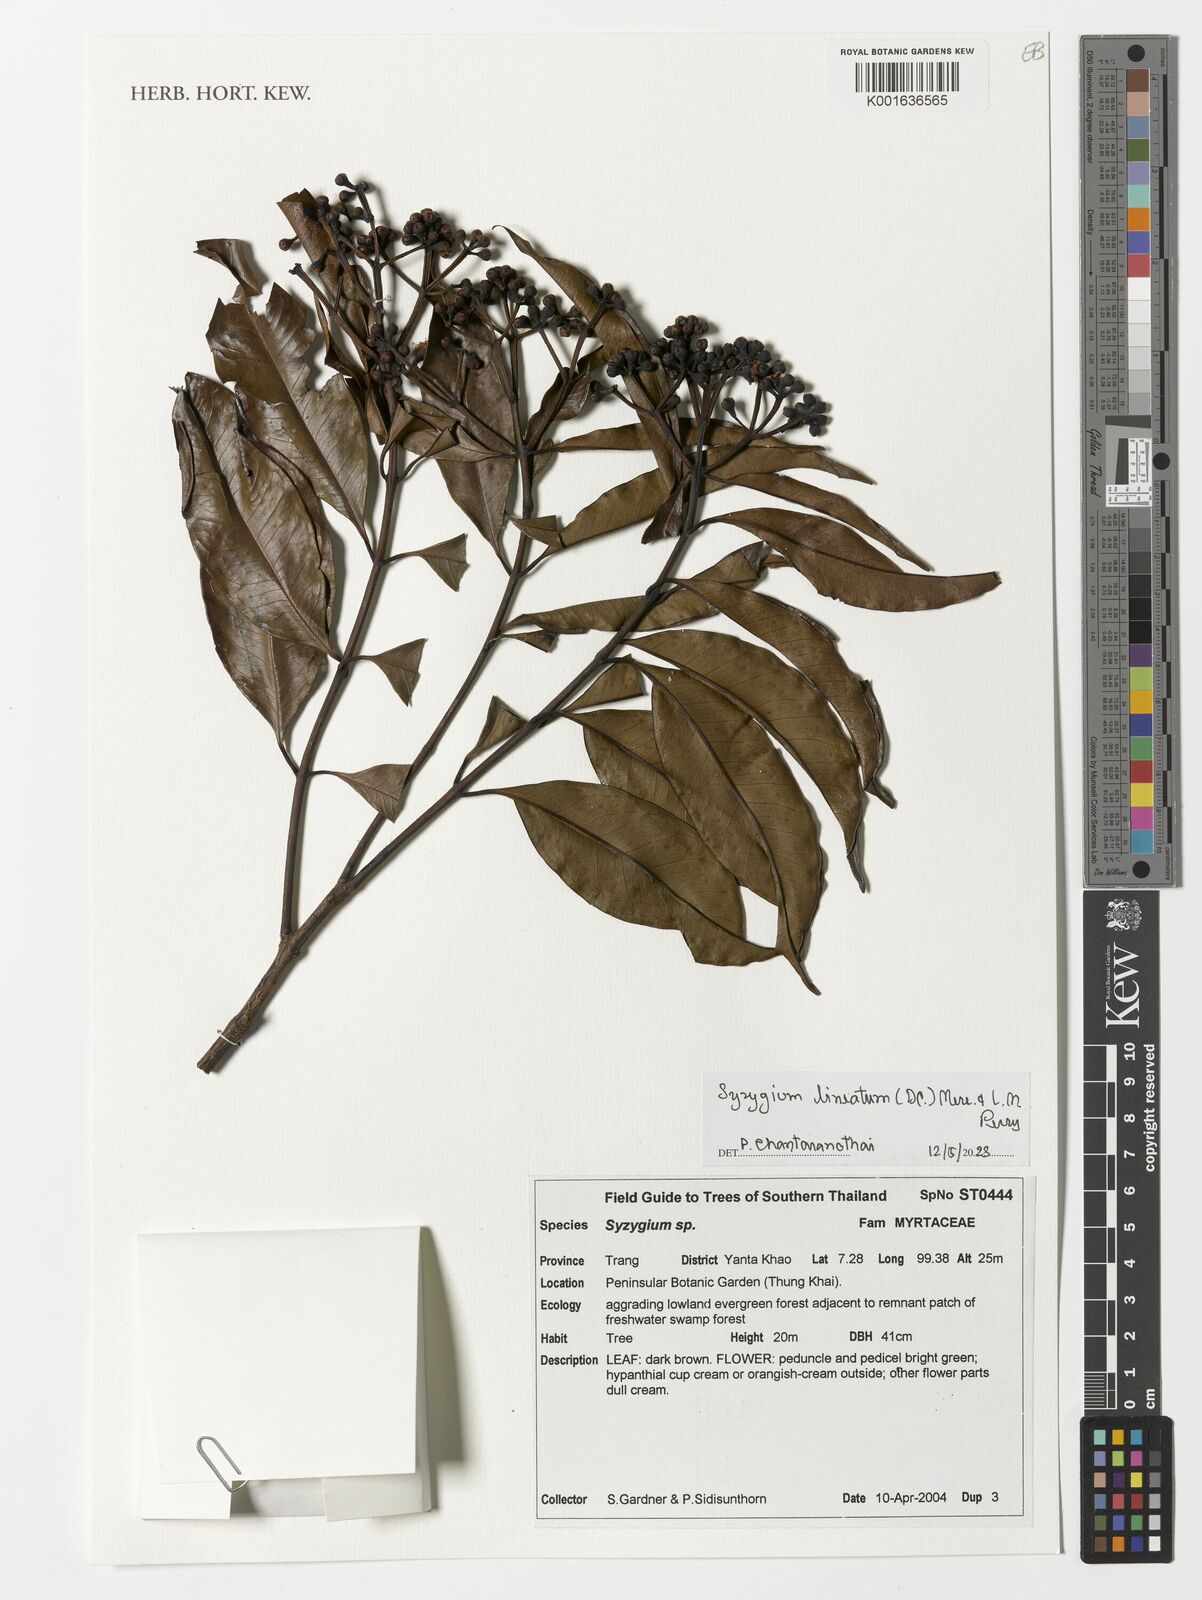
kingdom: Plantae
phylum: Tracheophyta
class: Magnoliopsida
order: Myrtales
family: Myrtaceae
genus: Syzygium
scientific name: Syzygium lineatum
